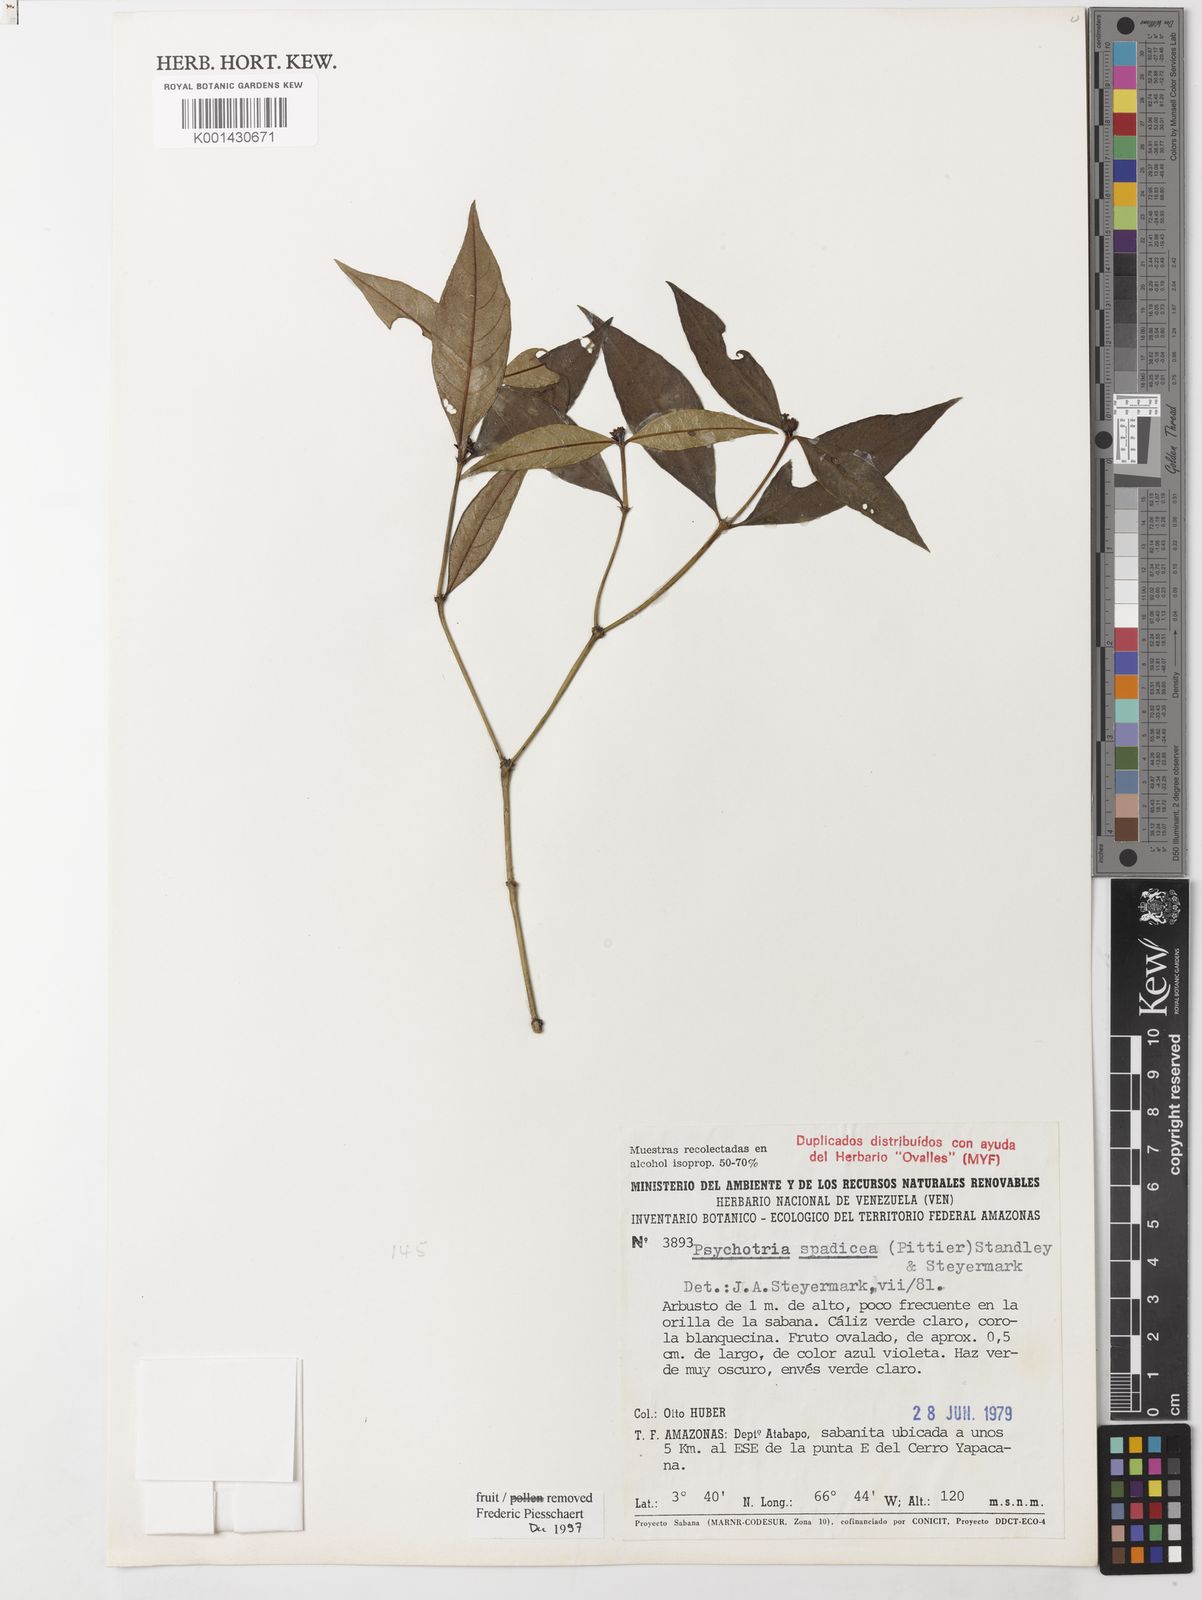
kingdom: Plantae
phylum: Tracheophyta
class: Magnoliopsida
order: Gentianales
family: Rubiaceae
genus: Palicourea
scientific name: Palicourea spadicea
